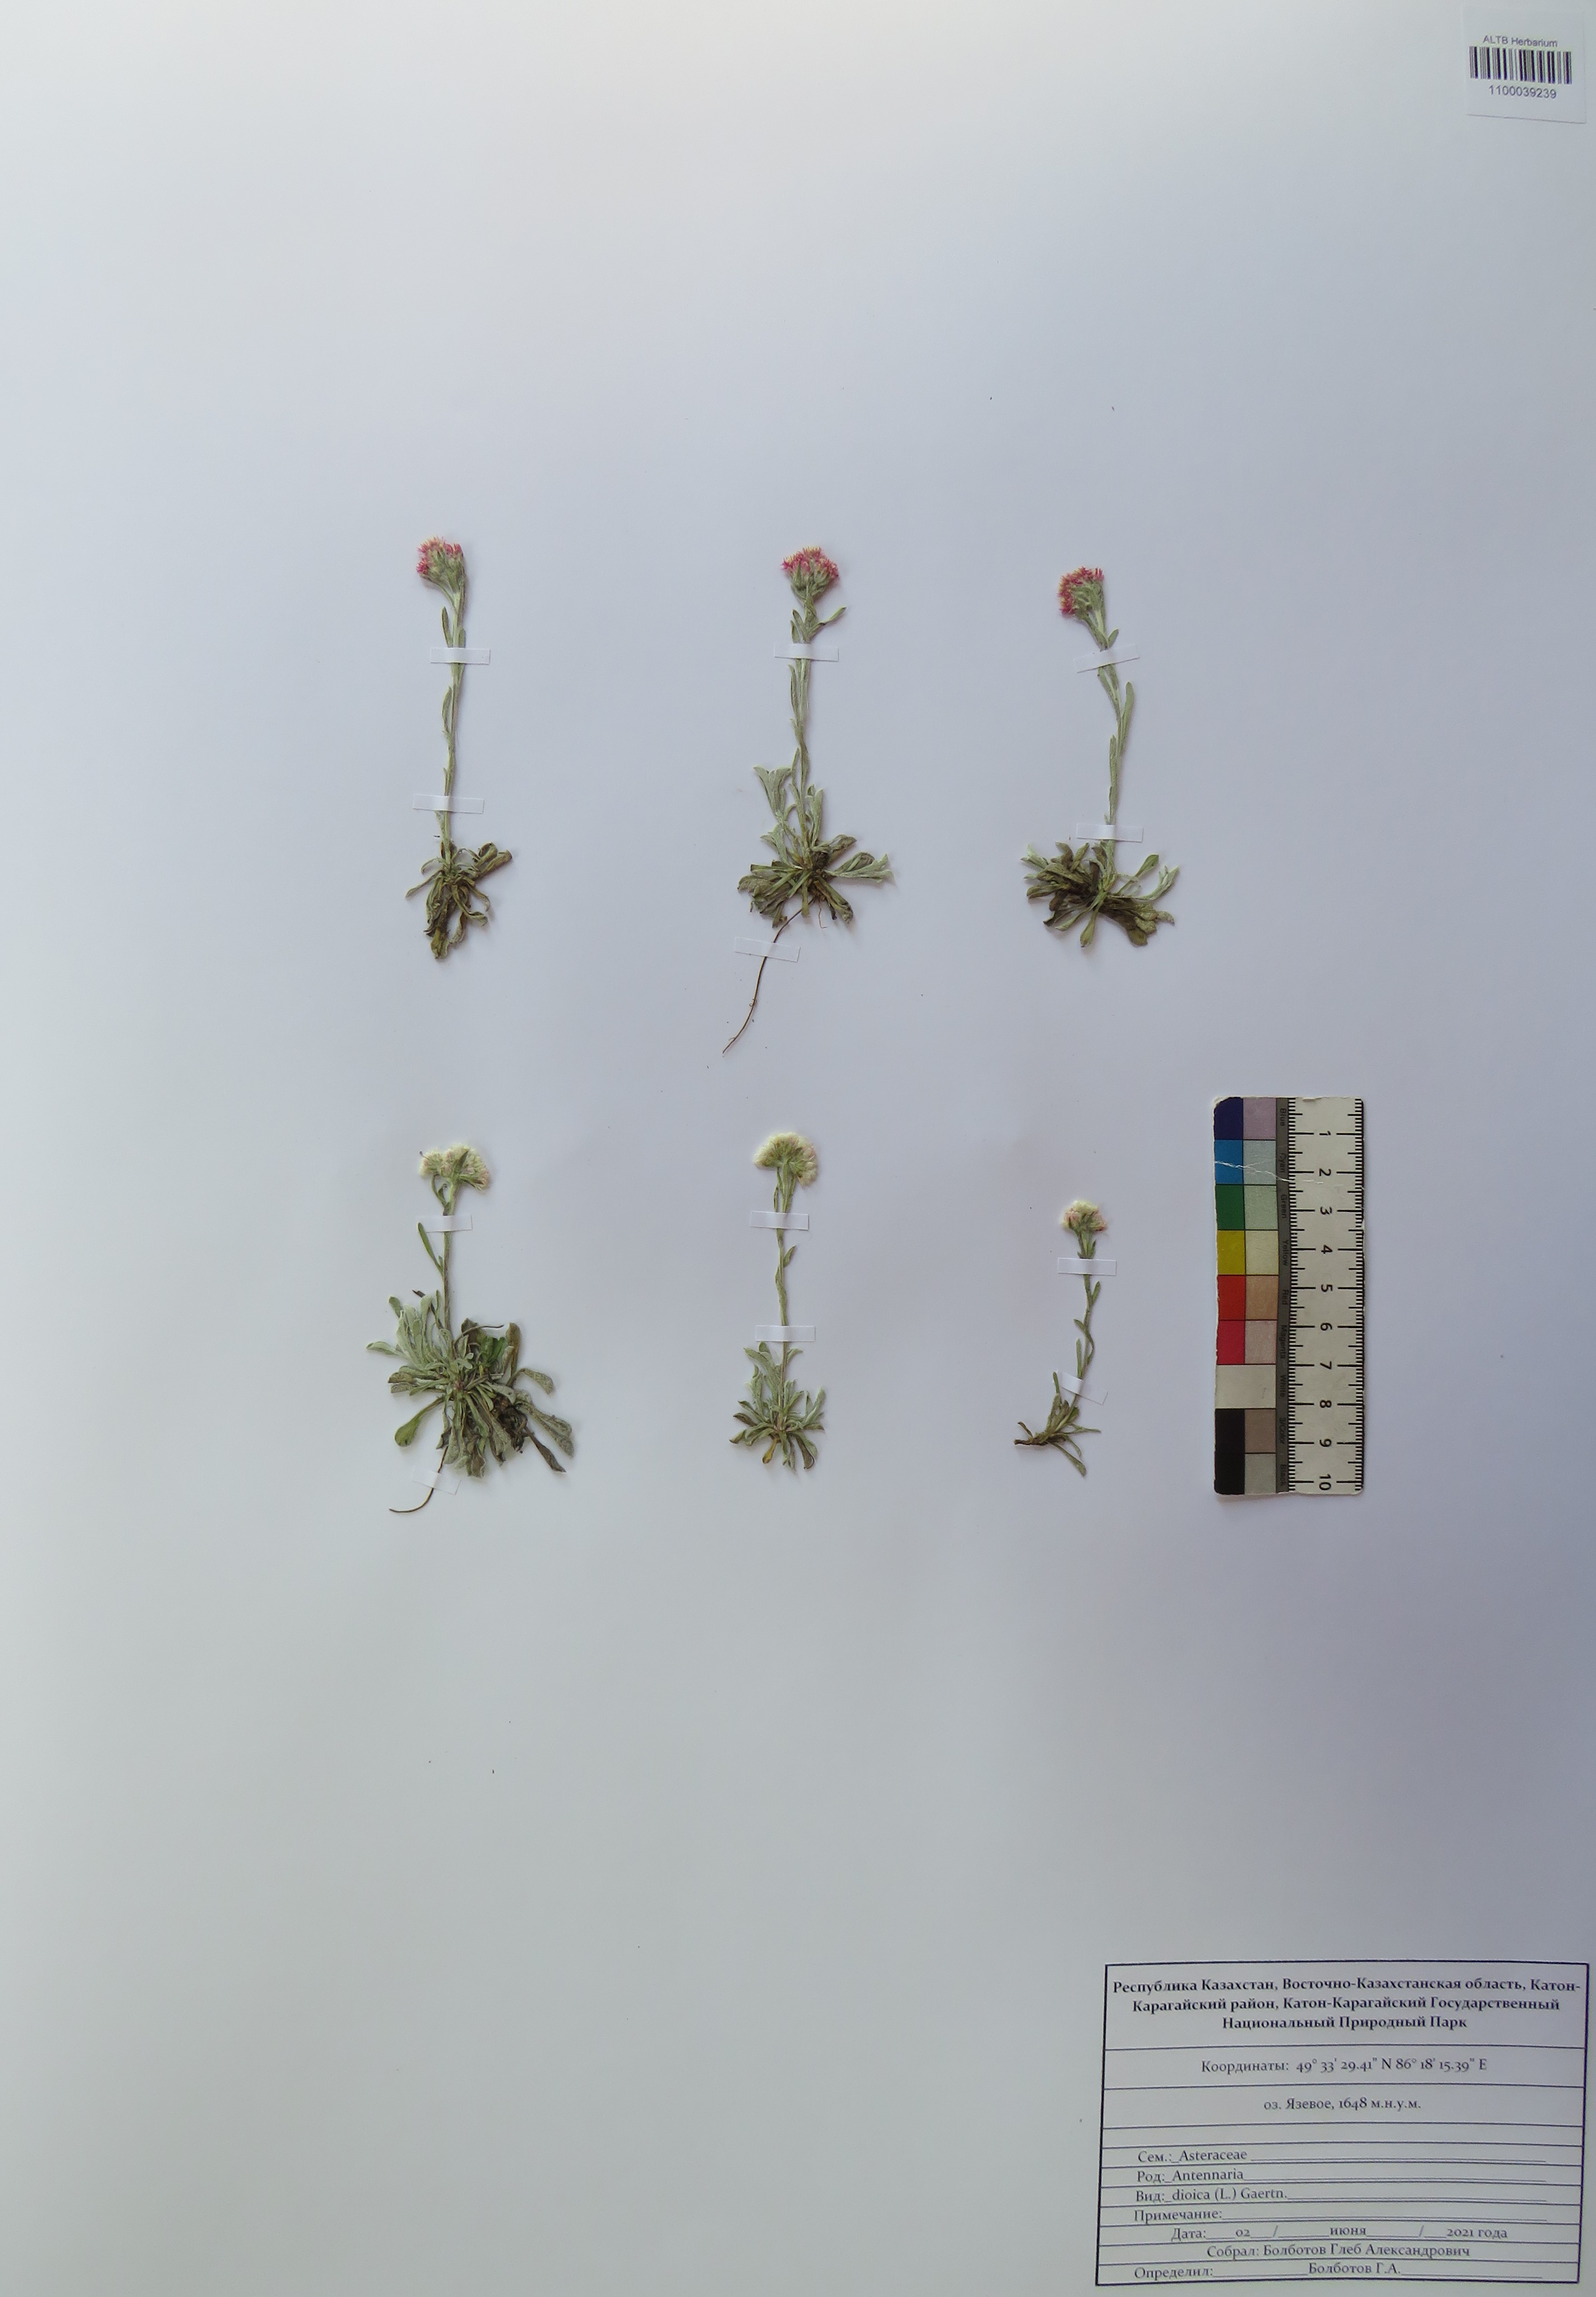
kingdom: Plantae
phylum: Tracheophyta
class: Magnoliopsida
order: Asterales
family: Asteraceae
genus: Antennaria
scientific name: Antennaria dioica
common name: Mountain everlasting
